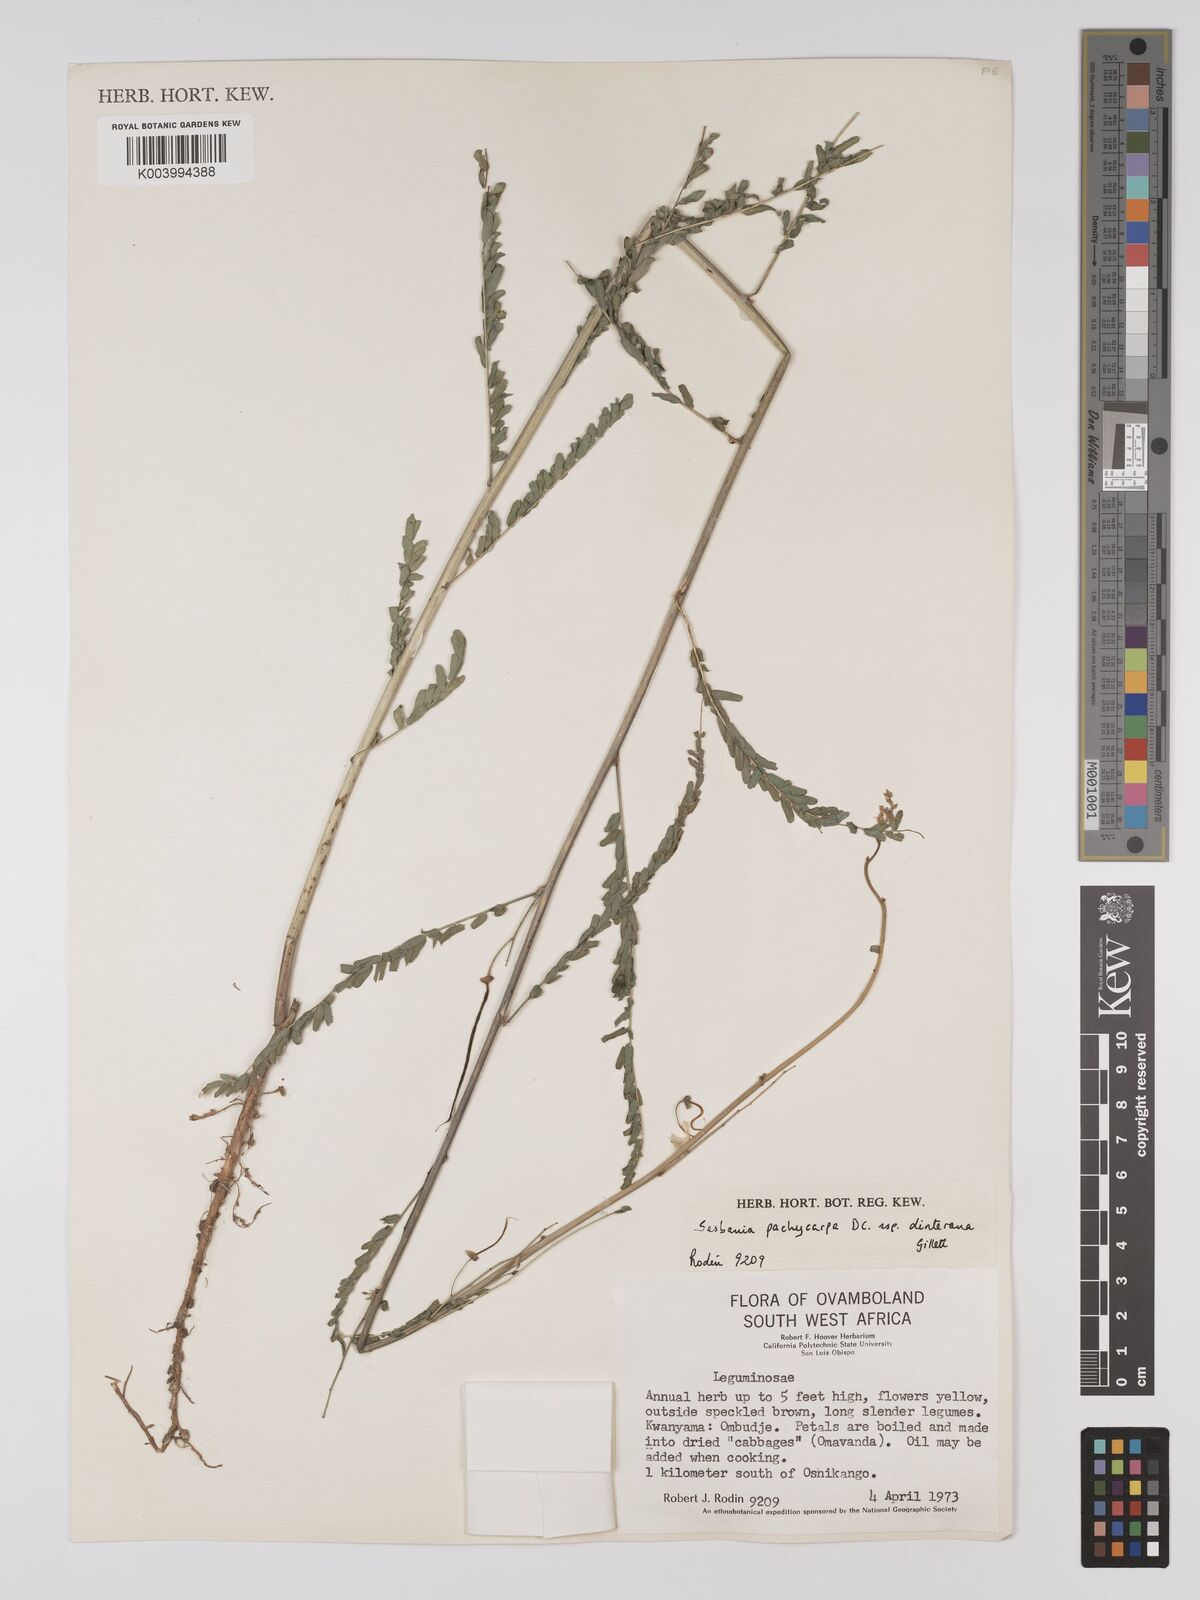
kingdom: Plantae
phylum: Tracheophyta
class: Magnoliopsida
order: Fabales
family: Fabaceae
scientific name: Fabaceae
